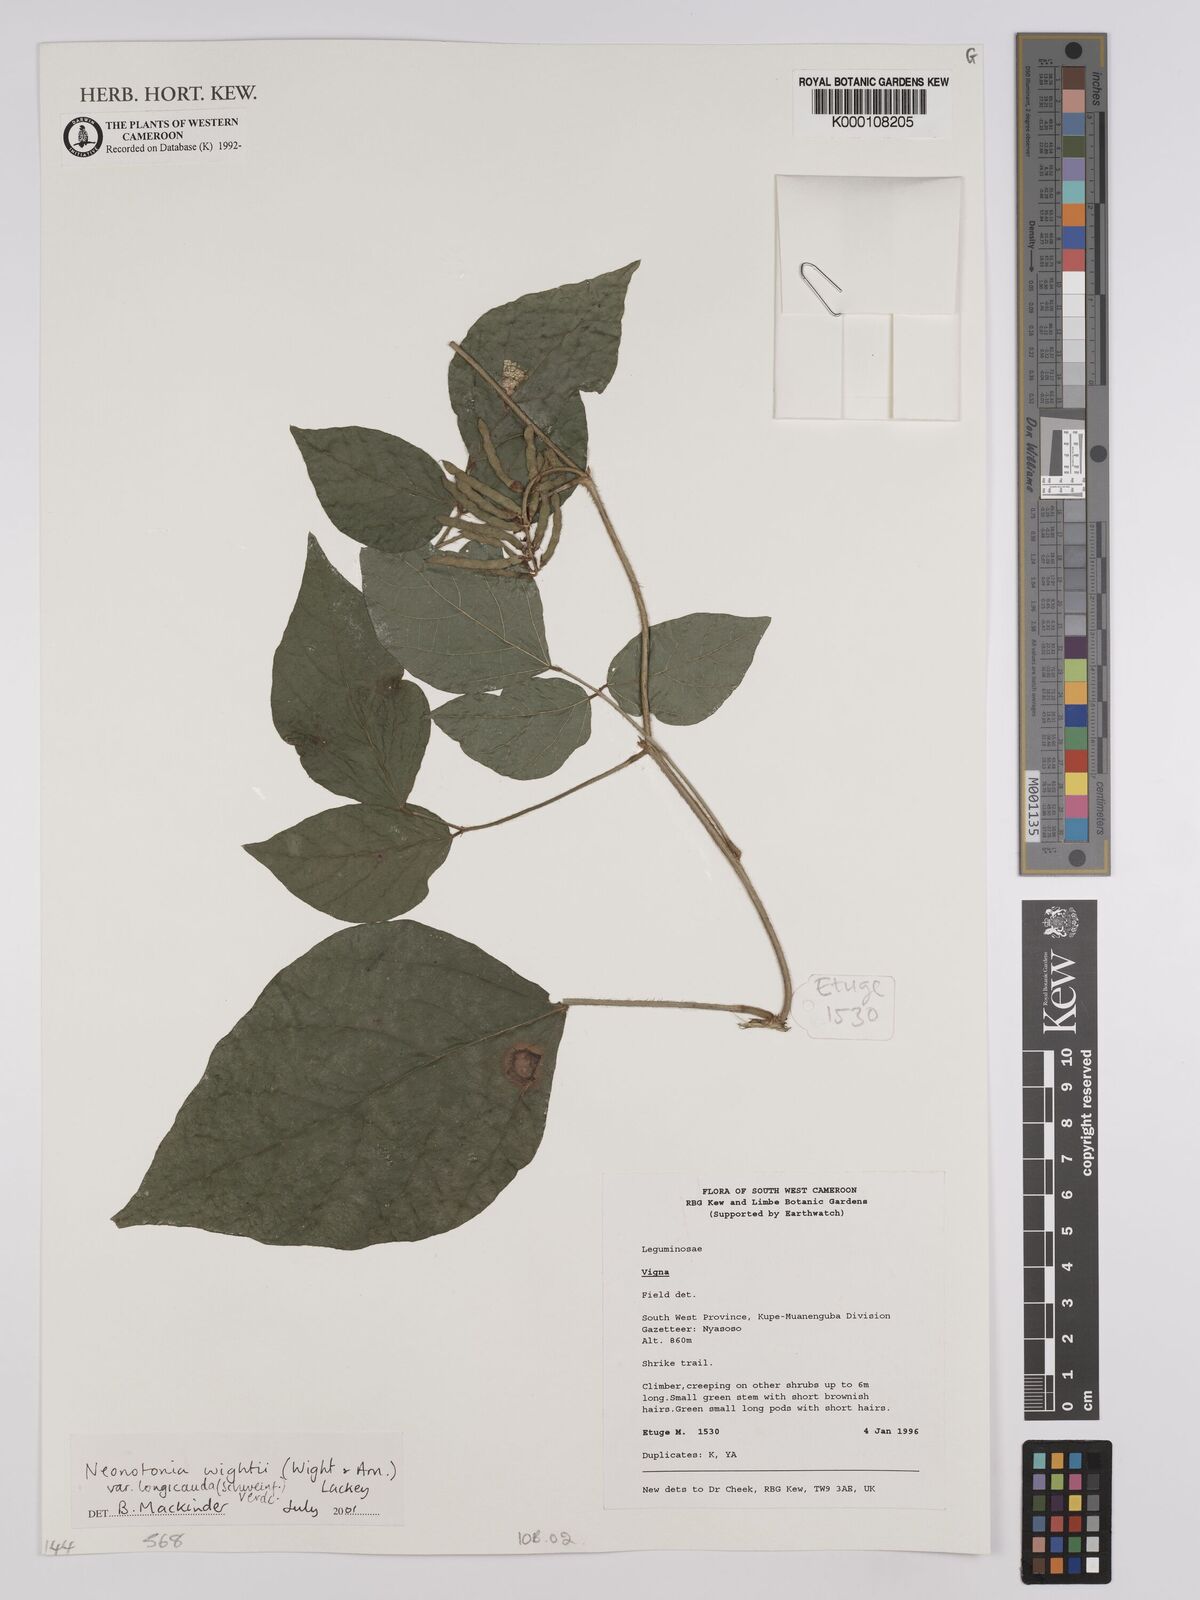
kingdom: Plantae
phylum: Tracheophyta
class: Magnoliopsida
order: Fabales
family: Fabaceae
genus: Neonotonia
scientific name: Neonotonia wightii
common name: Perennial soybean
